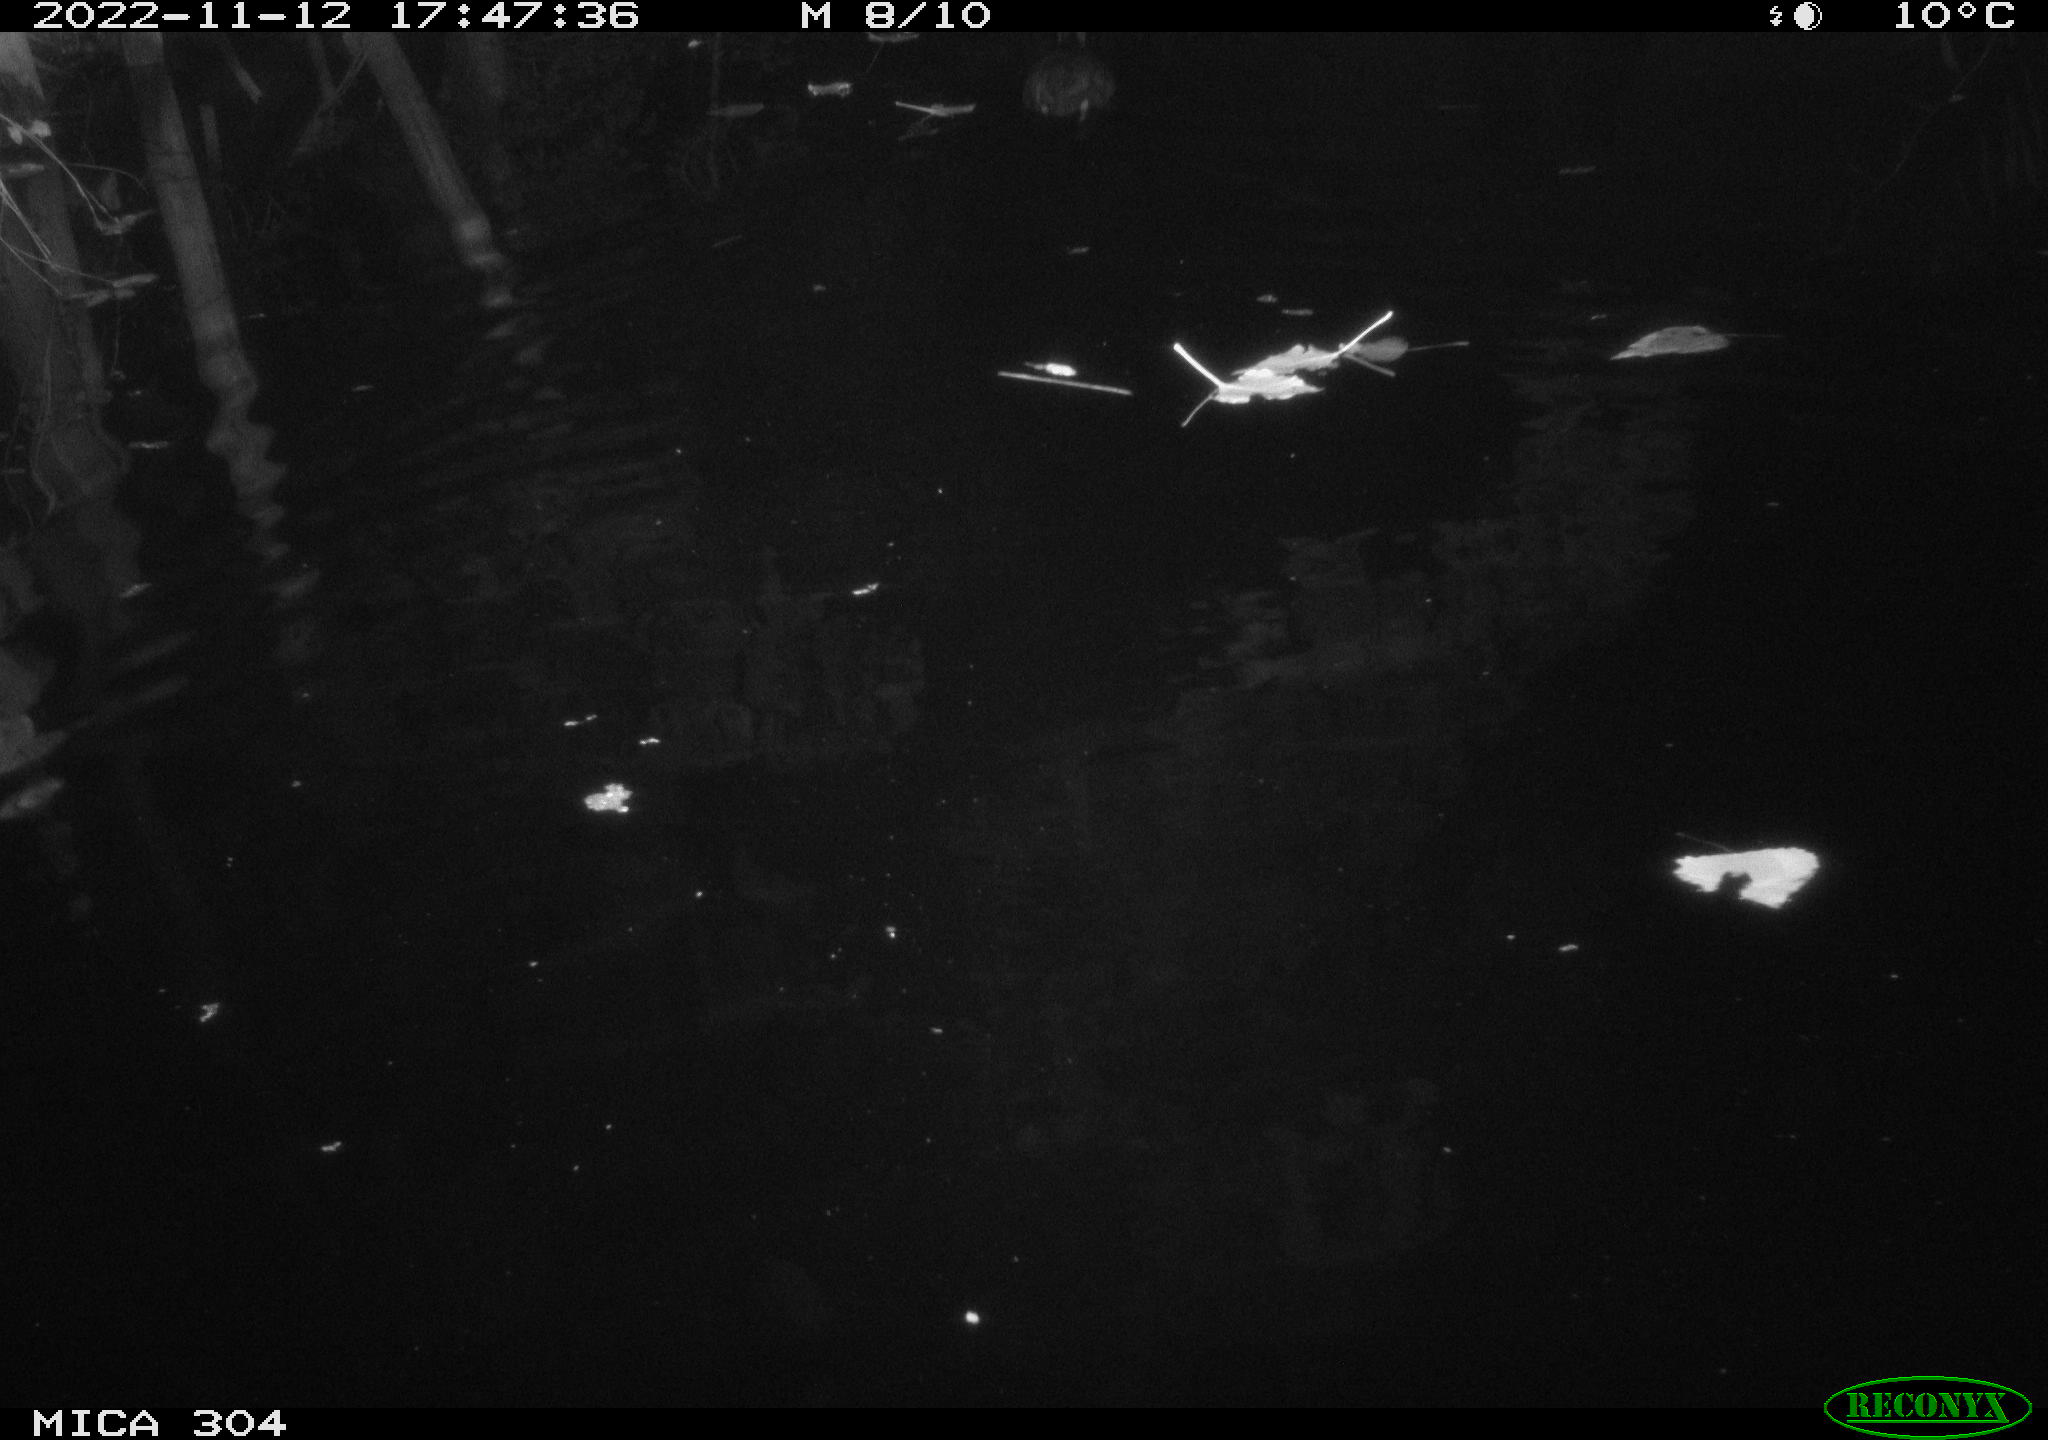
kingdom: Animalia
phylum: Chordata
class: Aves
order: Gruiformes
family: Rallidae
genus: Fulica
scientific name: Fulica atra
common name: Eurasian coot
